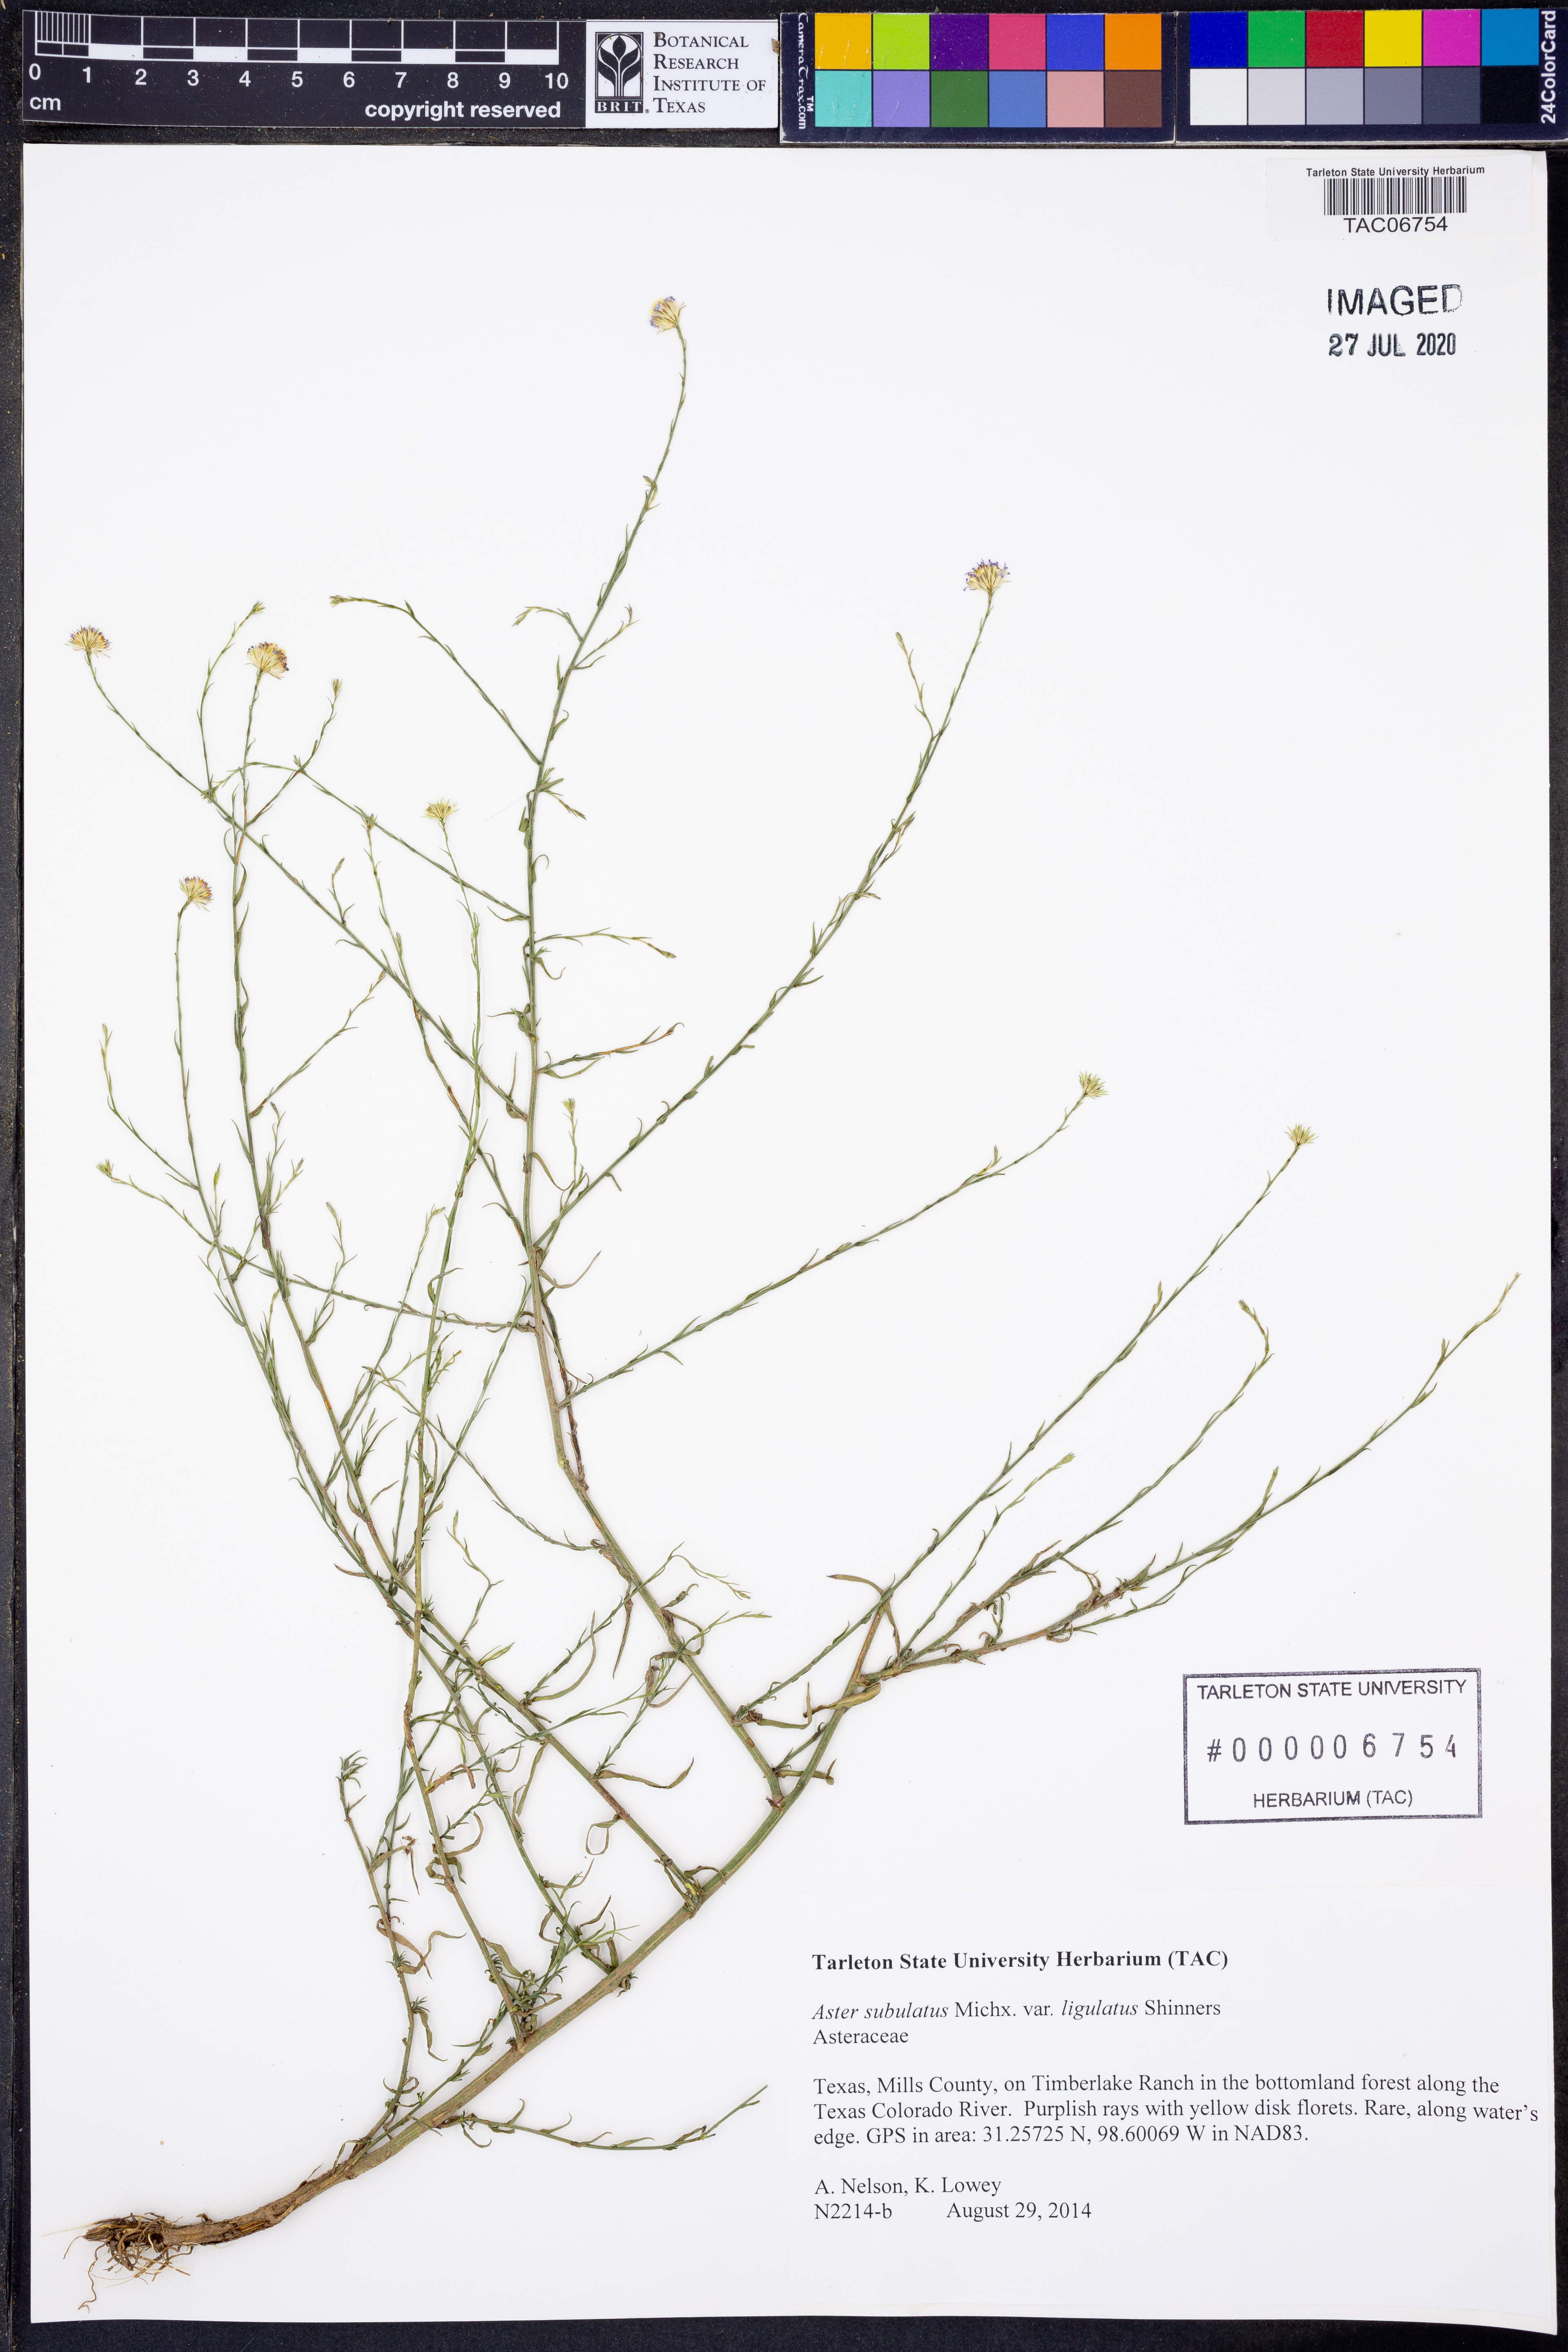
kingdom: Plantae
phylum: Tracheophyta
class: Magnoliopsida
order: Asterales
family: Asteraceae
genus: Symphyotrichum
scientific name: Symphyotrichum divaricatum
